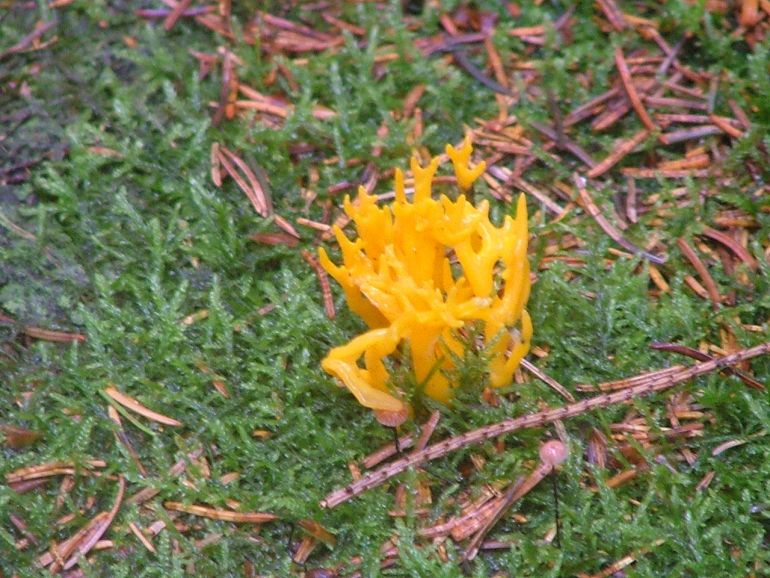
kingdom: Fungi
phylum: Basidiomycota
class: Dacrymycetes
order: Dacrymycetales
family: Dacrymycetaceae
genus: Calocera
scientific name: Calocera viscosa
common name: almindelig guldgaffel
